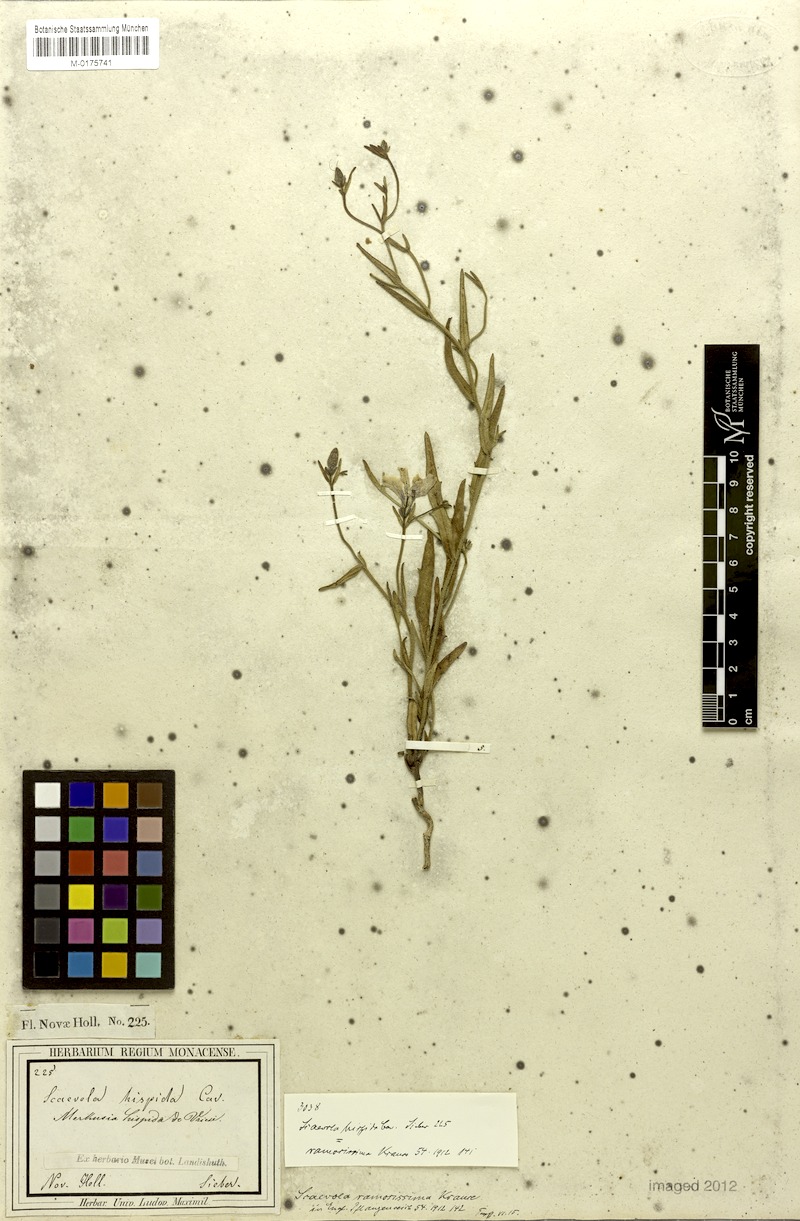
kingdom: Plantae
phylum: Tracheophyta
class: Magnoliopsida
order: Asterales
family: Goodeniaceae
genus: Scaevola
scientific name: Scaevola ramosissima
